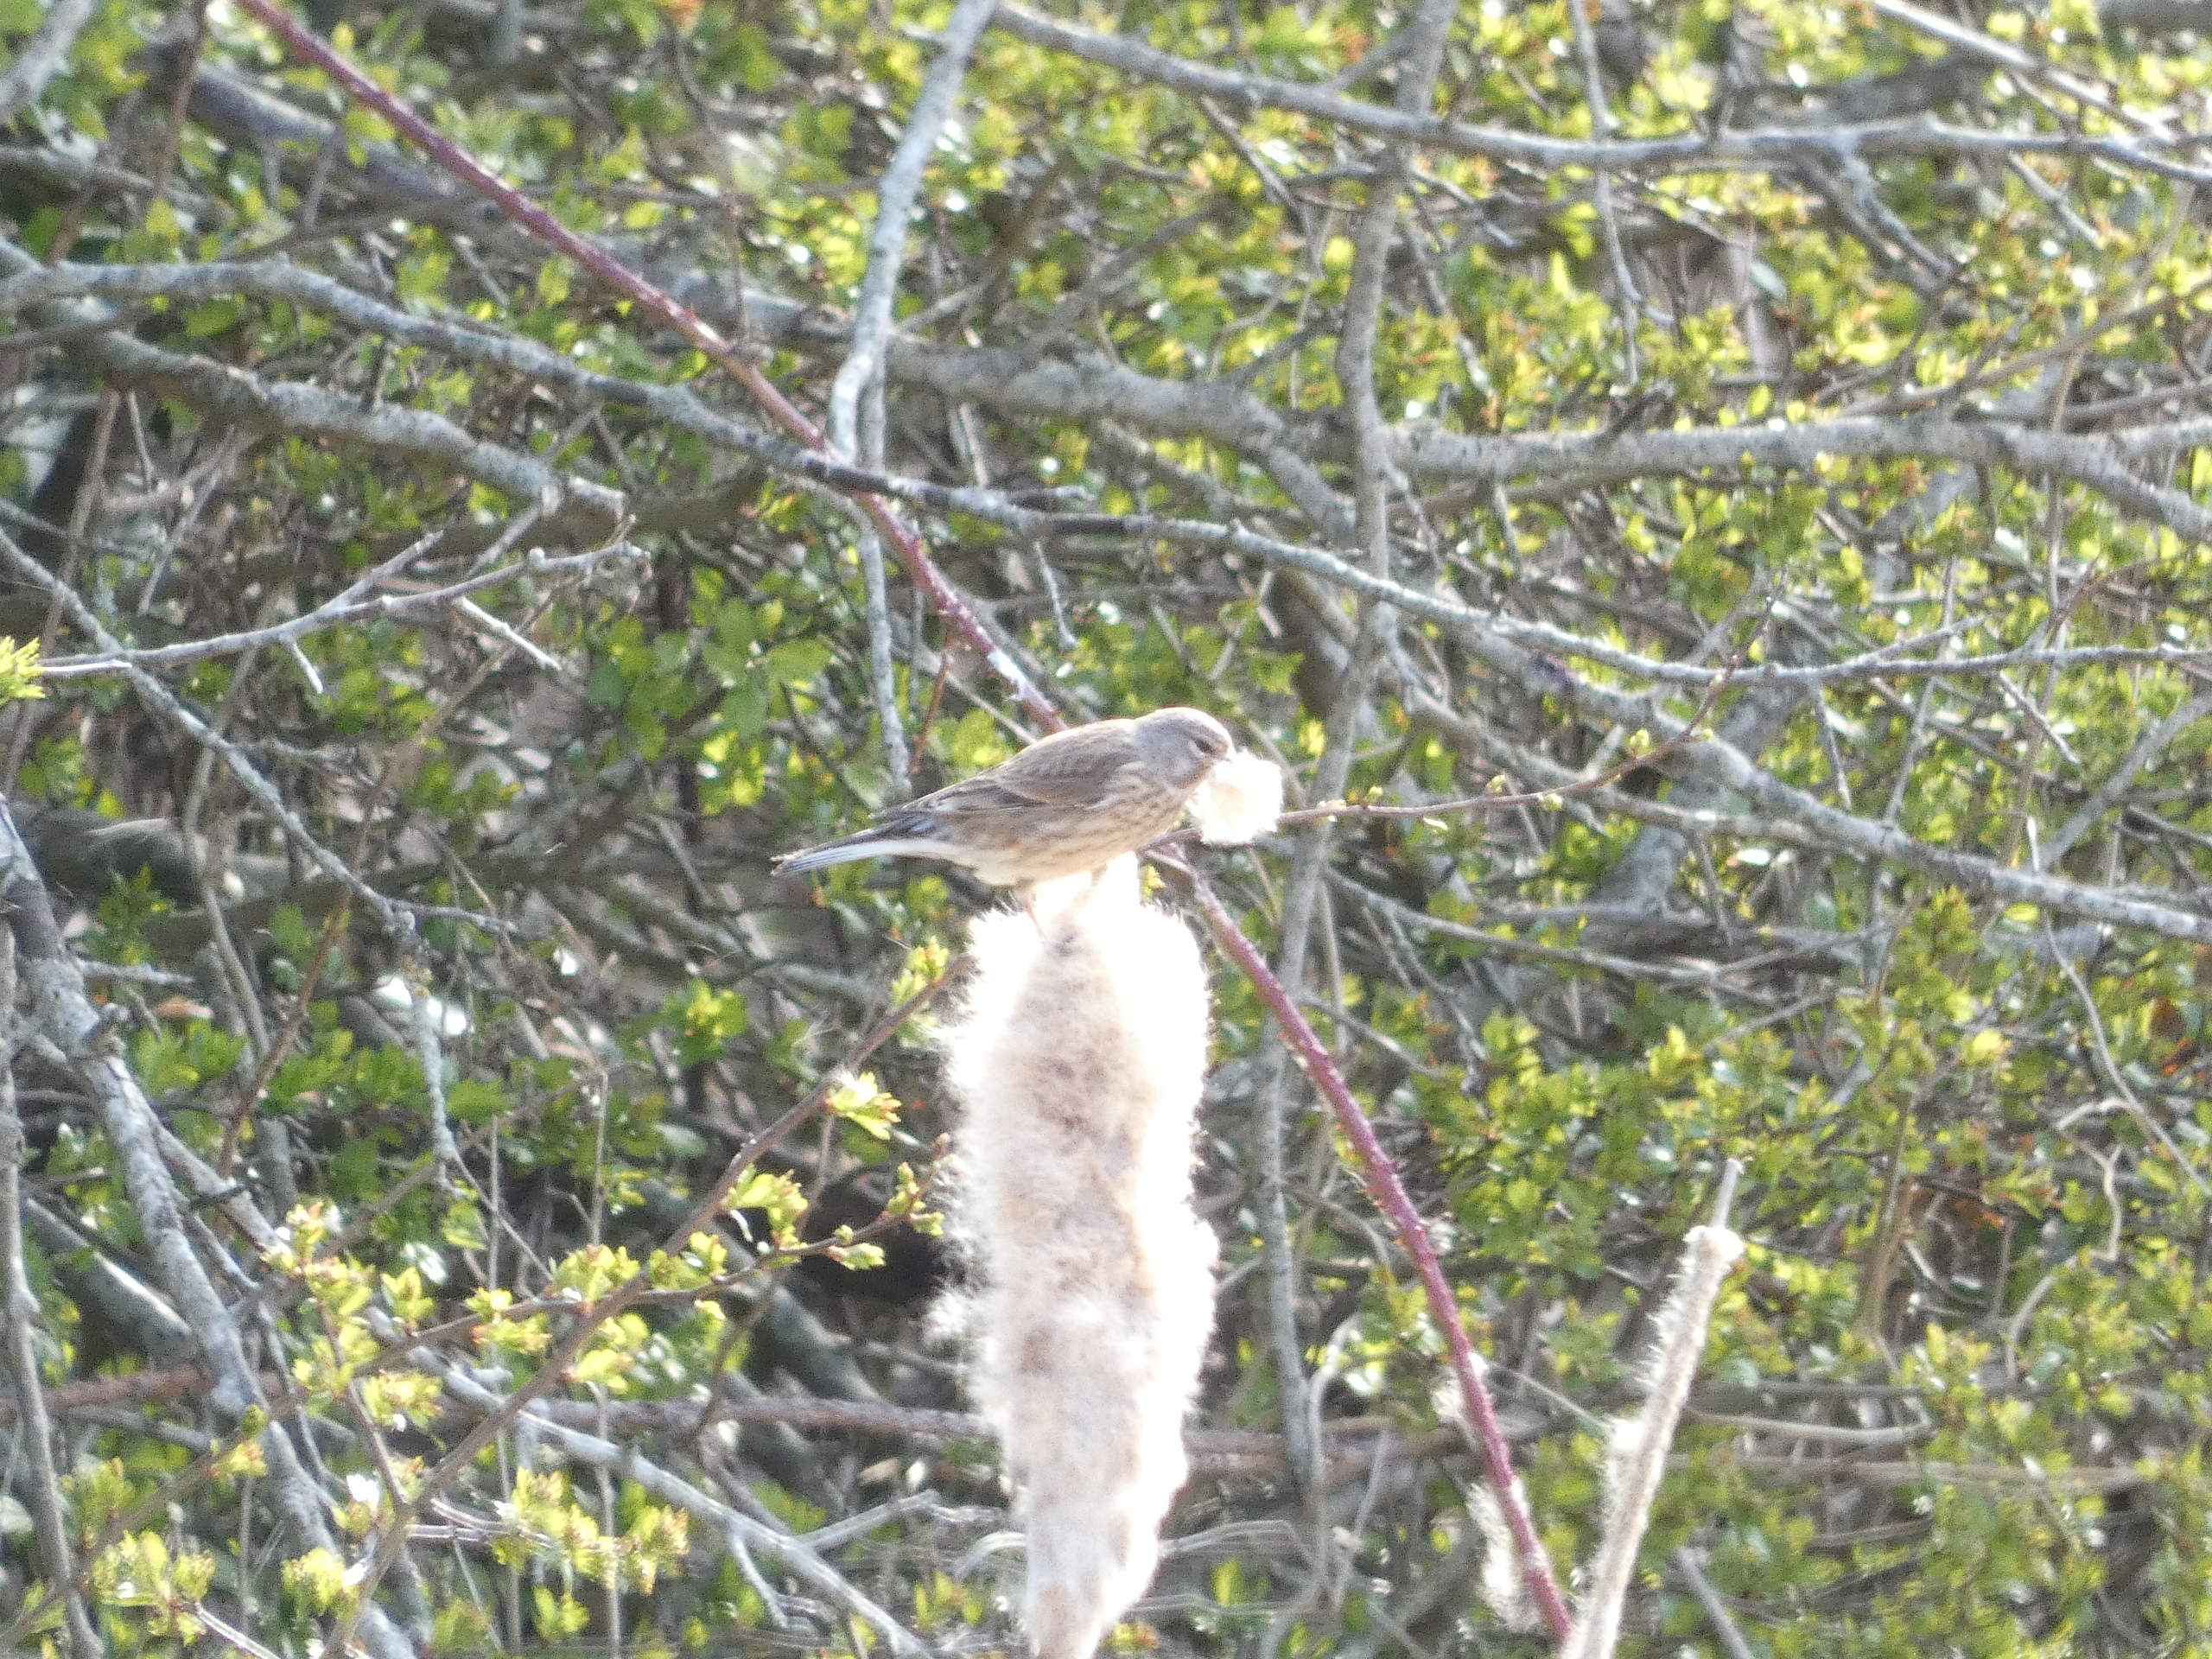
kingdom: Animalia
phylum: Chordata
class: Aves
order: Passeriformes
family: Fringillidae
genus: Linaria
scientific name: Linaria cannabina
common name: Tornirisk
